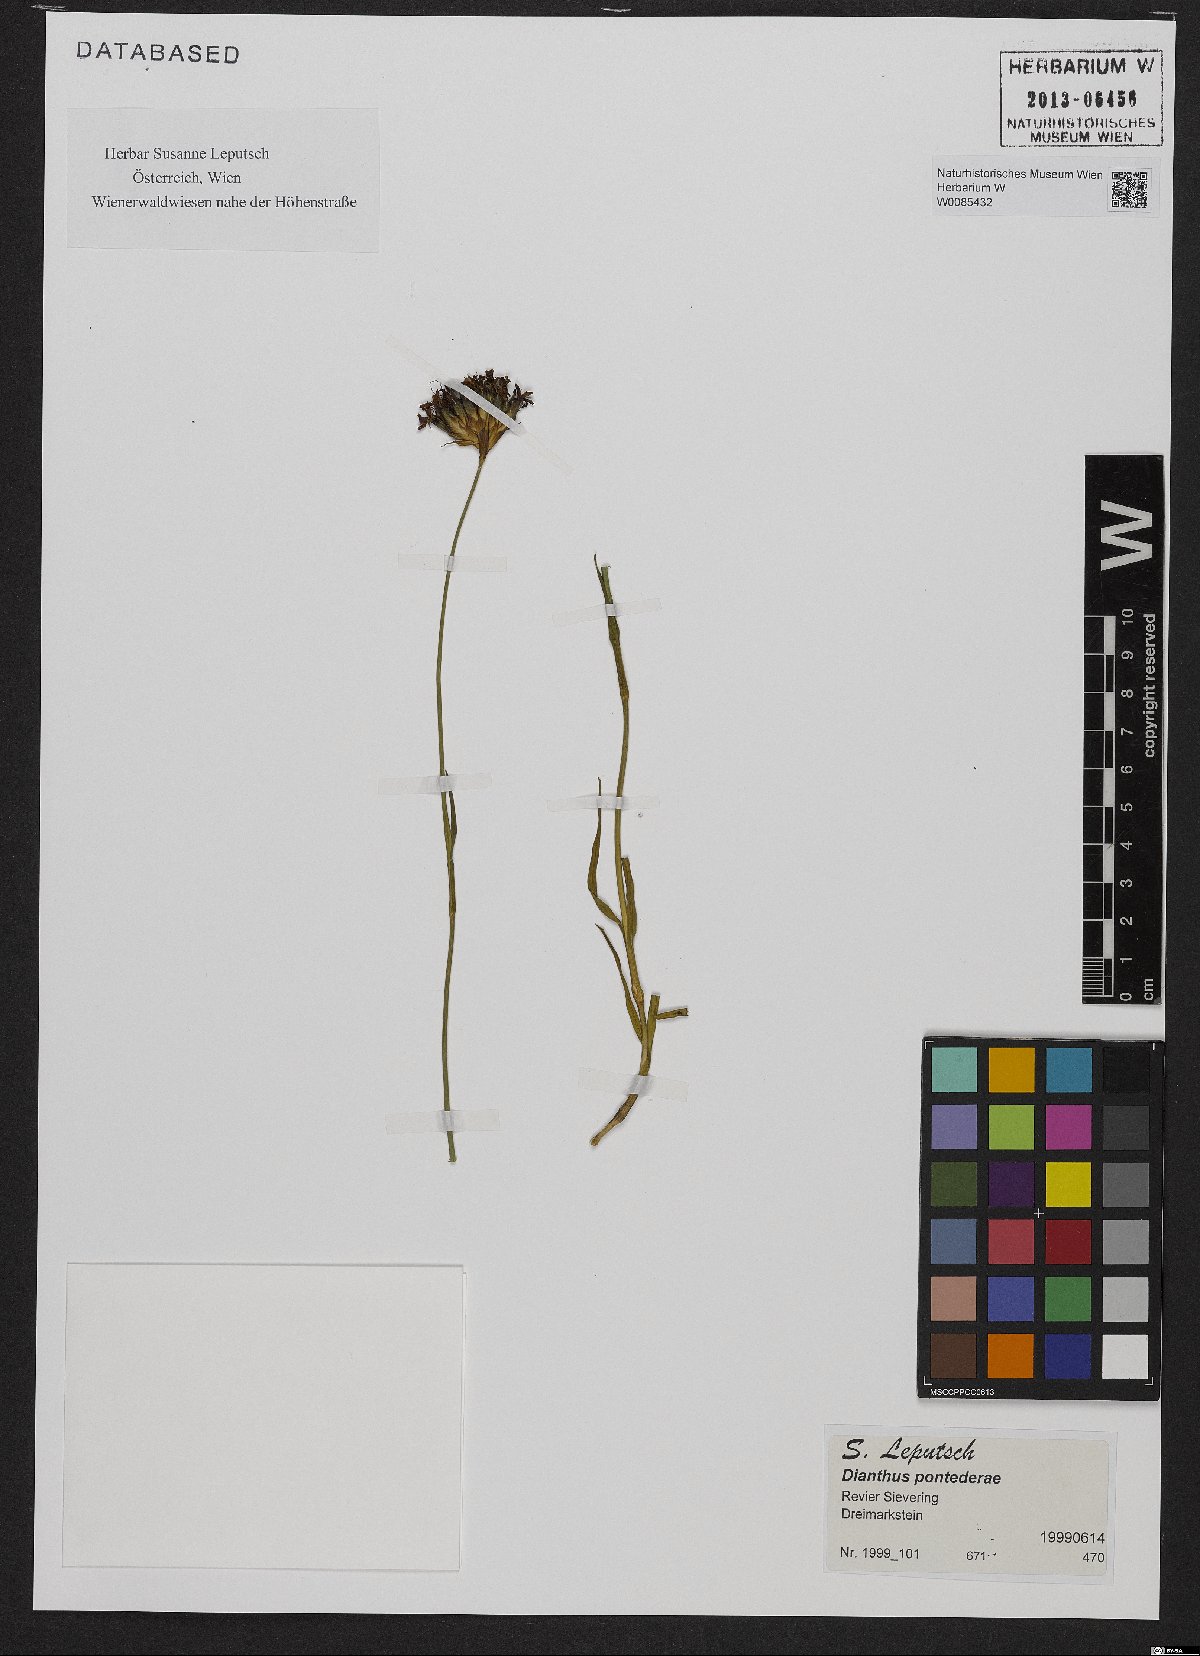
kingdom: Plantae
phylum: Tracheophyta
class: Magnoliopsida
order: Caryophyllales
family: Caryophyllaceae
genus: Dianthus
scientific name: Dianthus pontederae
